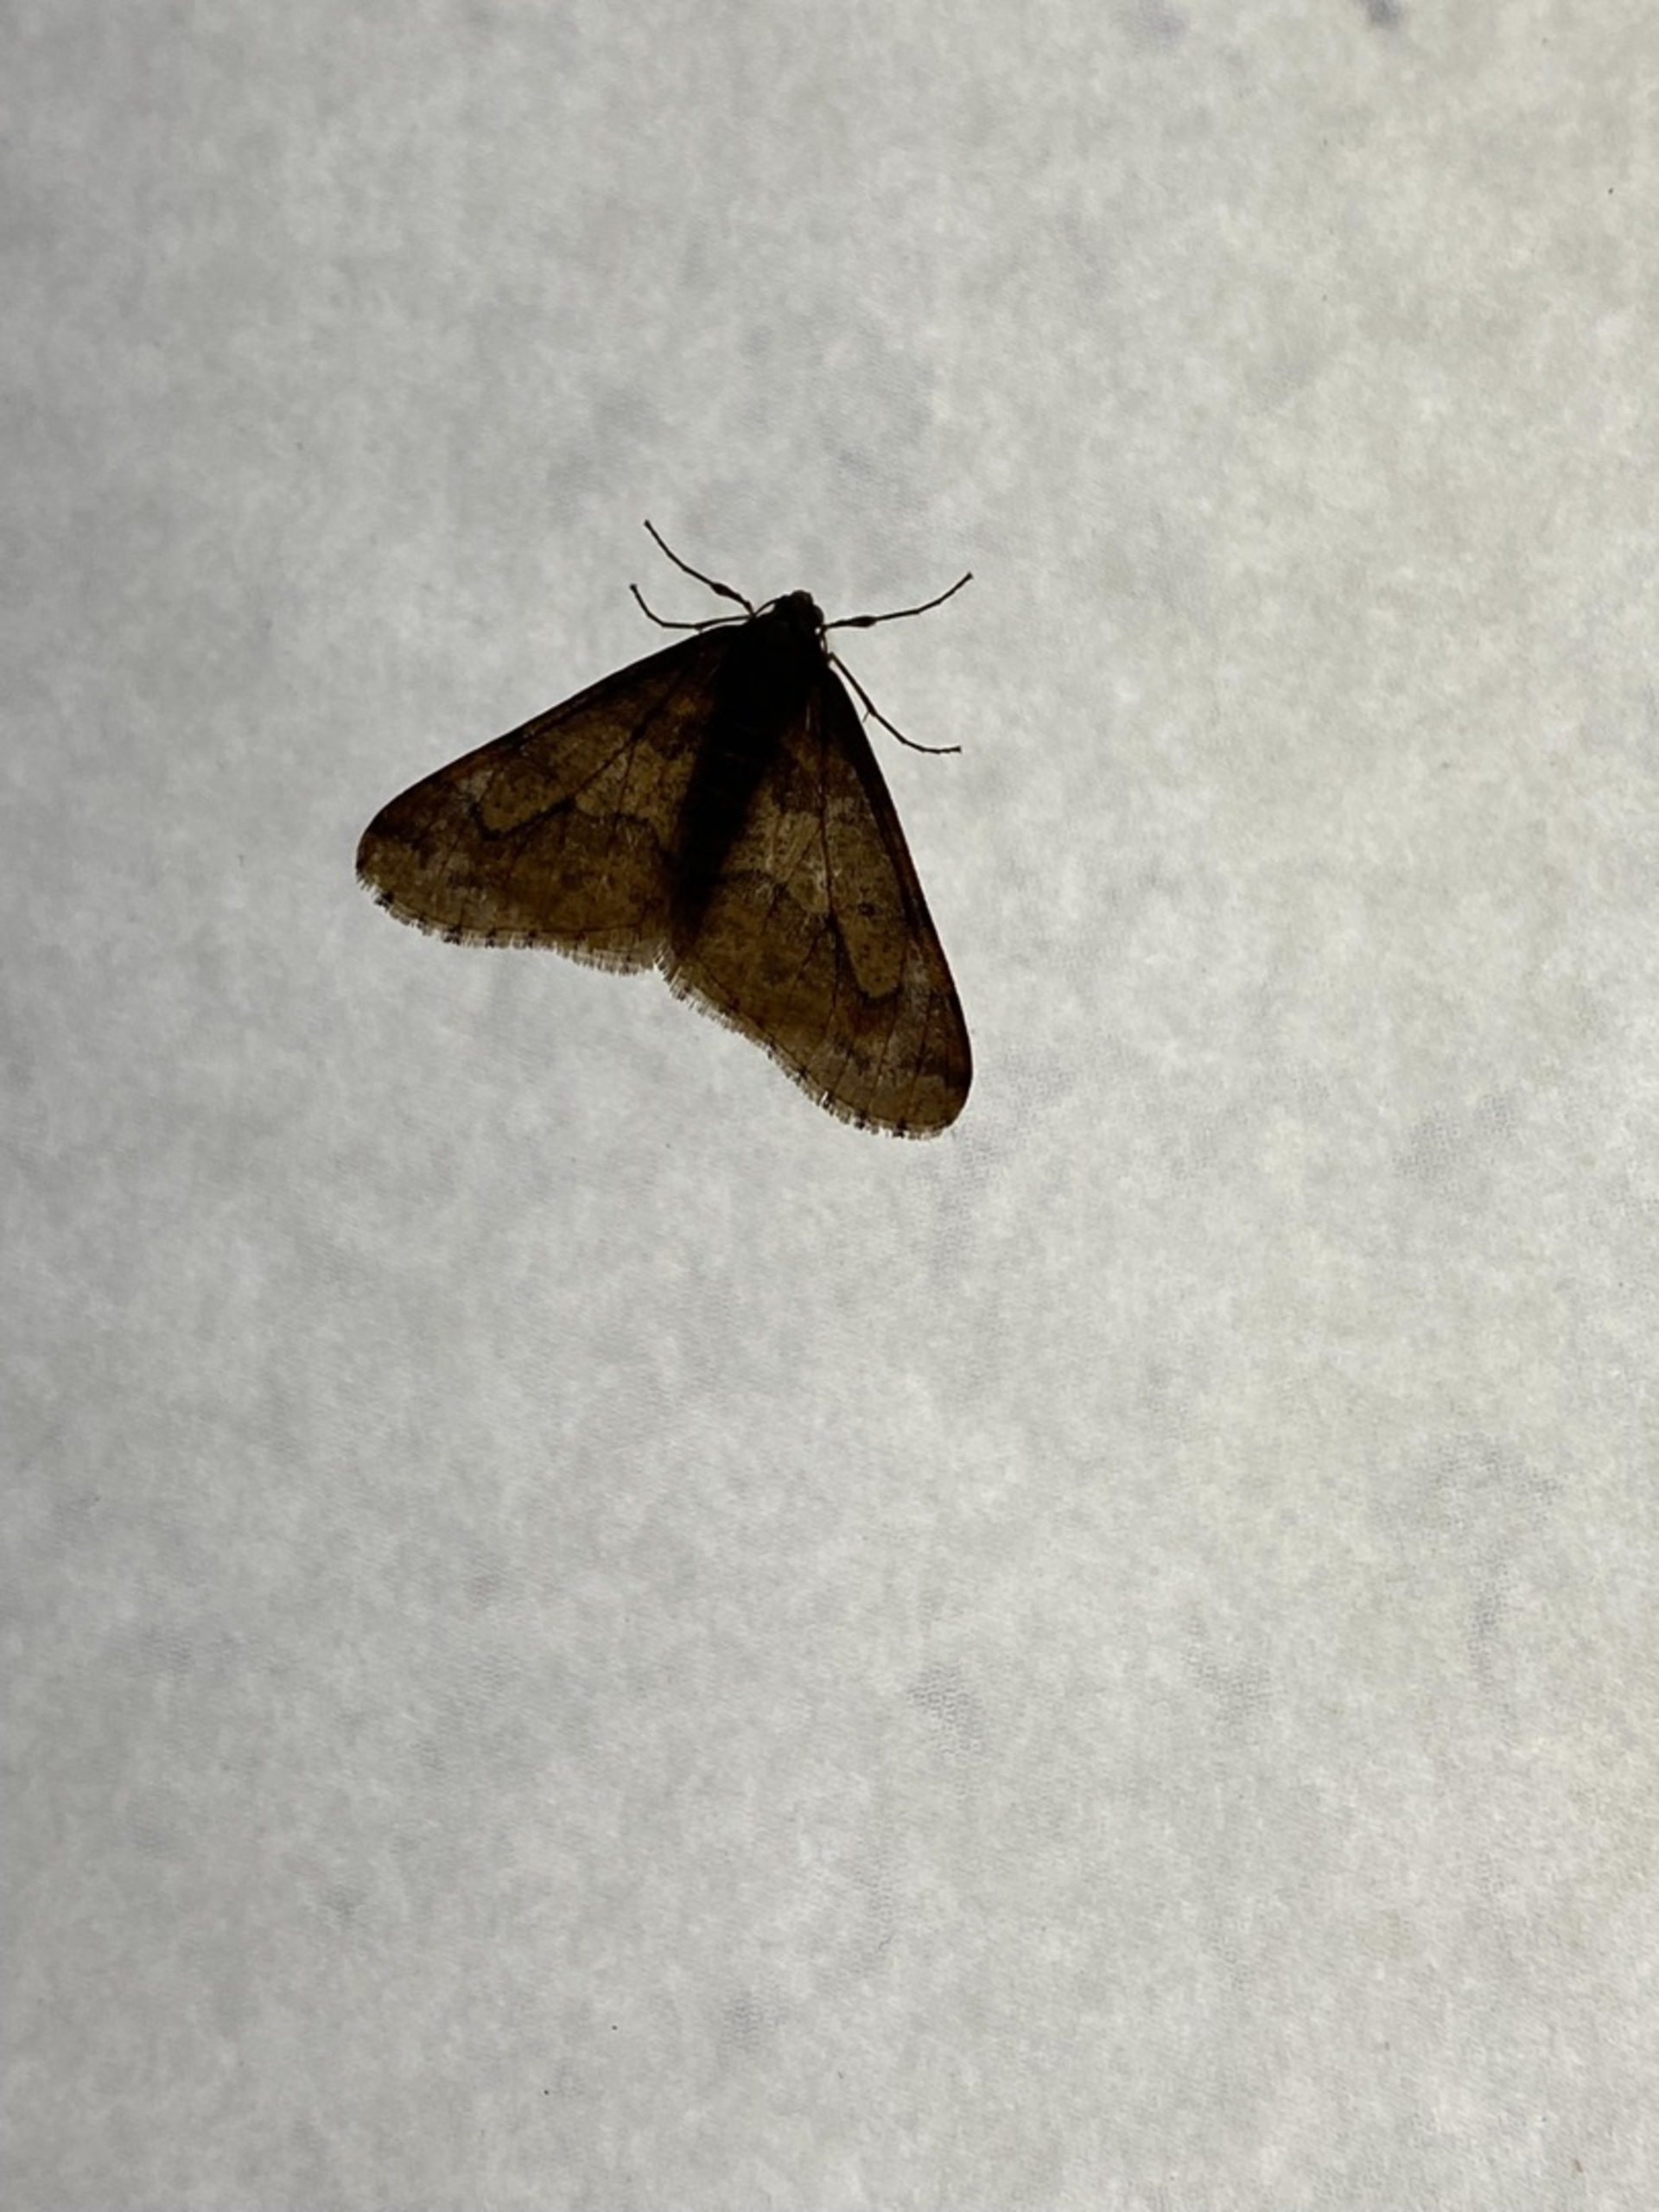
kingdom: Animalia
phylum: Arthropoda
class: Insecta
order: Lepidoptera
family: Geometridae
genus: Erannis
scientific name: Erannis defoliaria
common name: Stor frostmåler
